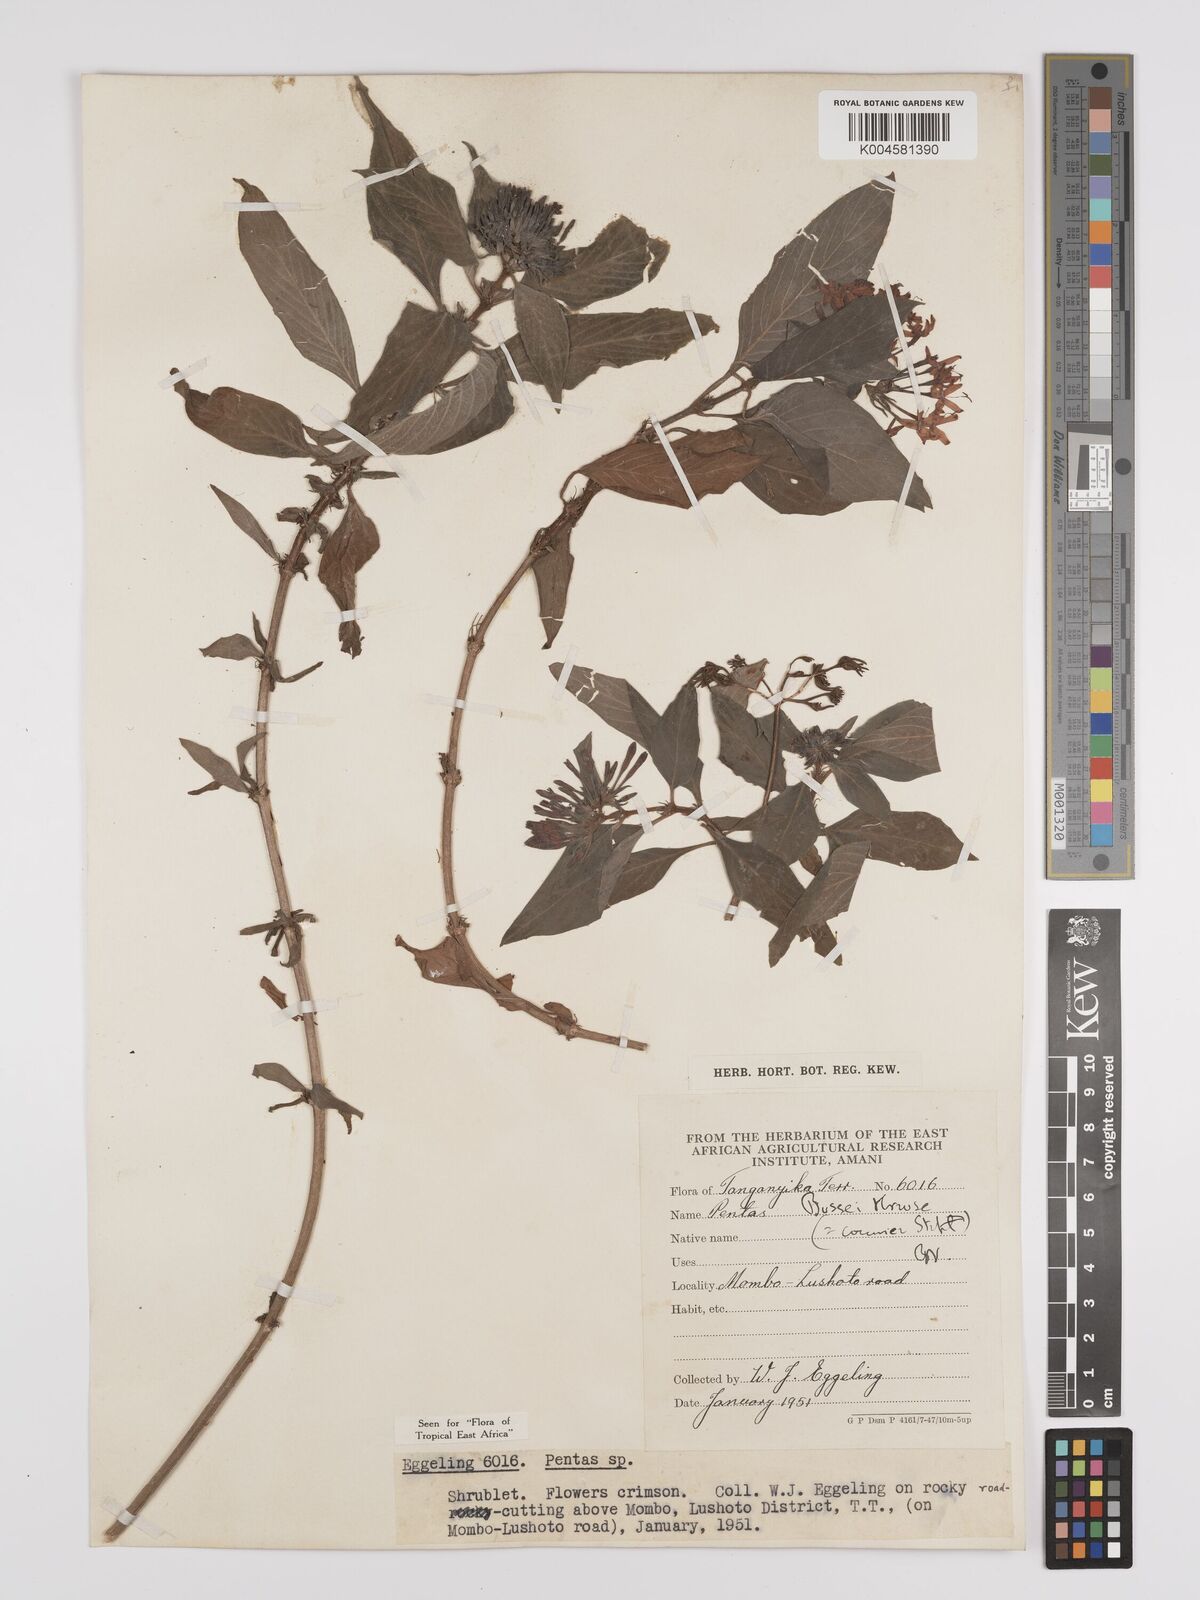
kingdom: Plantae
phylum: Tracheophyta
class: Magnoliopsida
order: Gentianales
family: Rubiaceae
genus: Rhodopentas
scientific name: Rhodopentas bussei
